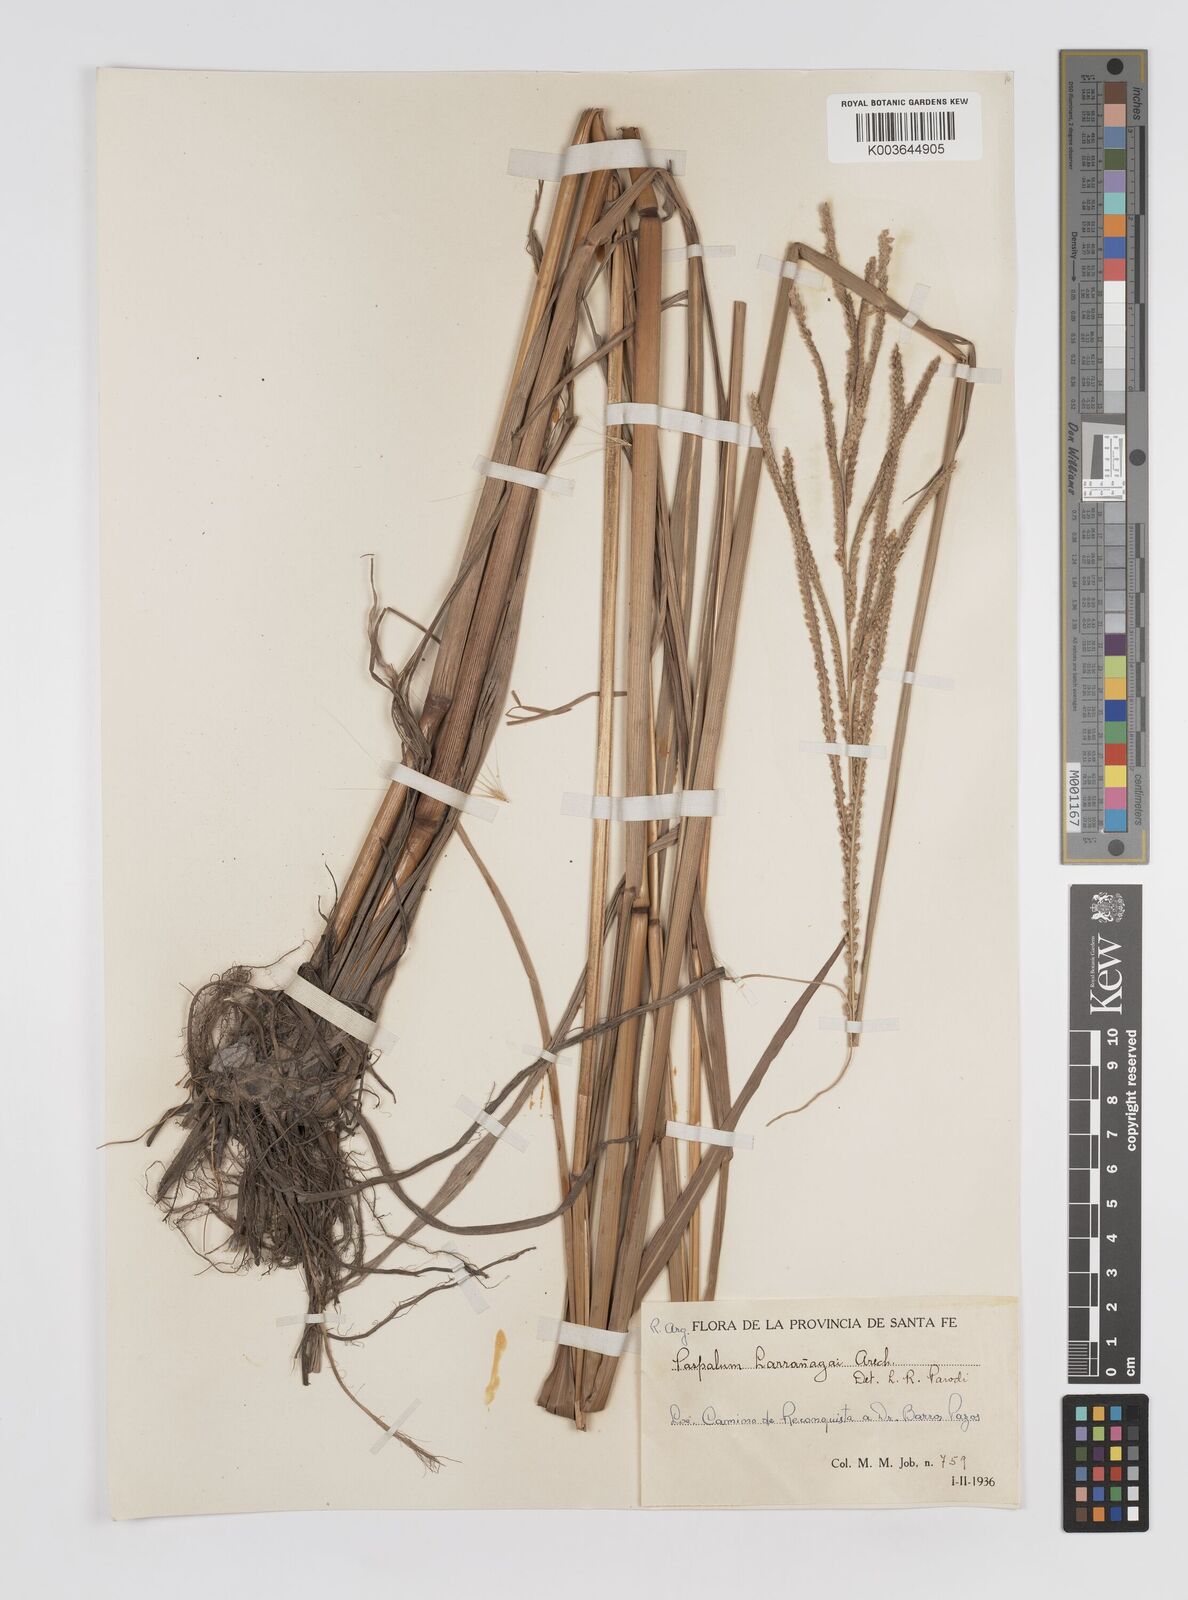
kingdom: Plantae
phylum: Tracheophyta
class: Liliopsida
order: Poales
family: Poaceae
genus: Paspalum
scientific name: Paspalum urvillei
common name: Vasey's grass
